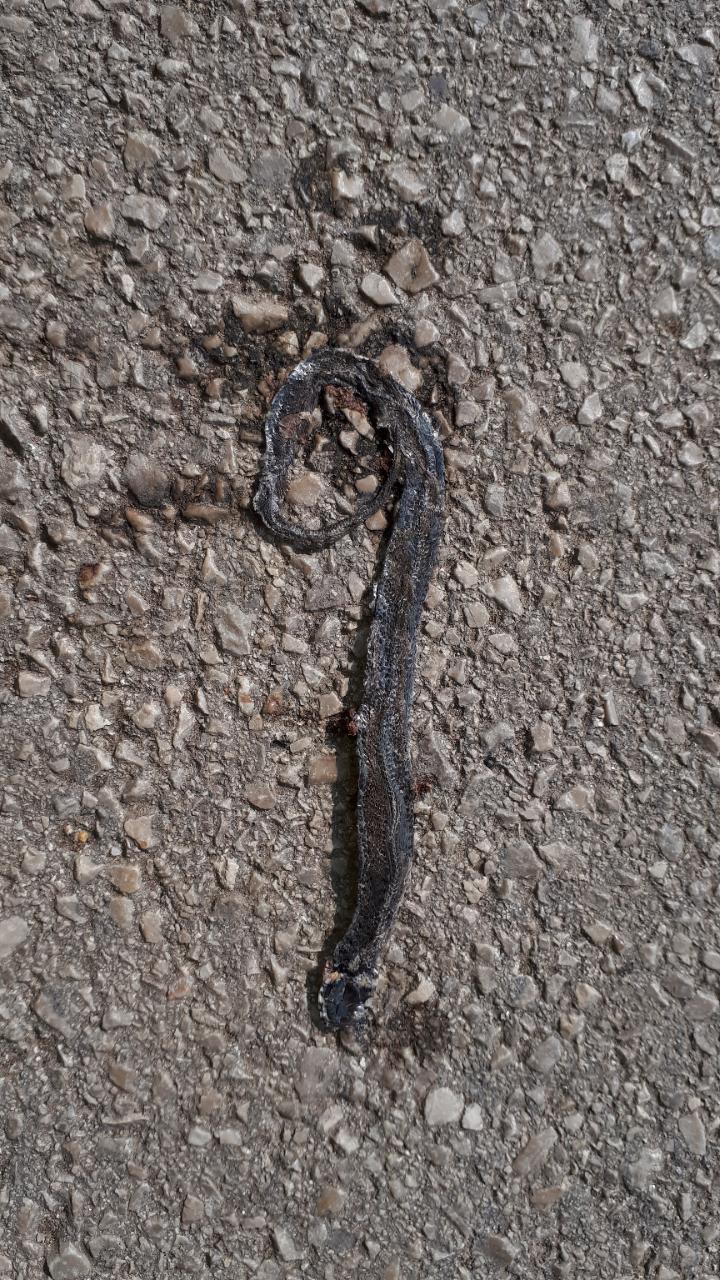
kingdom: Animalia
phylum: Chordata
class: Squamata
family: Colubridae
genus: Natrix
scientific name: Natrix natrix
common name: Grass snake
